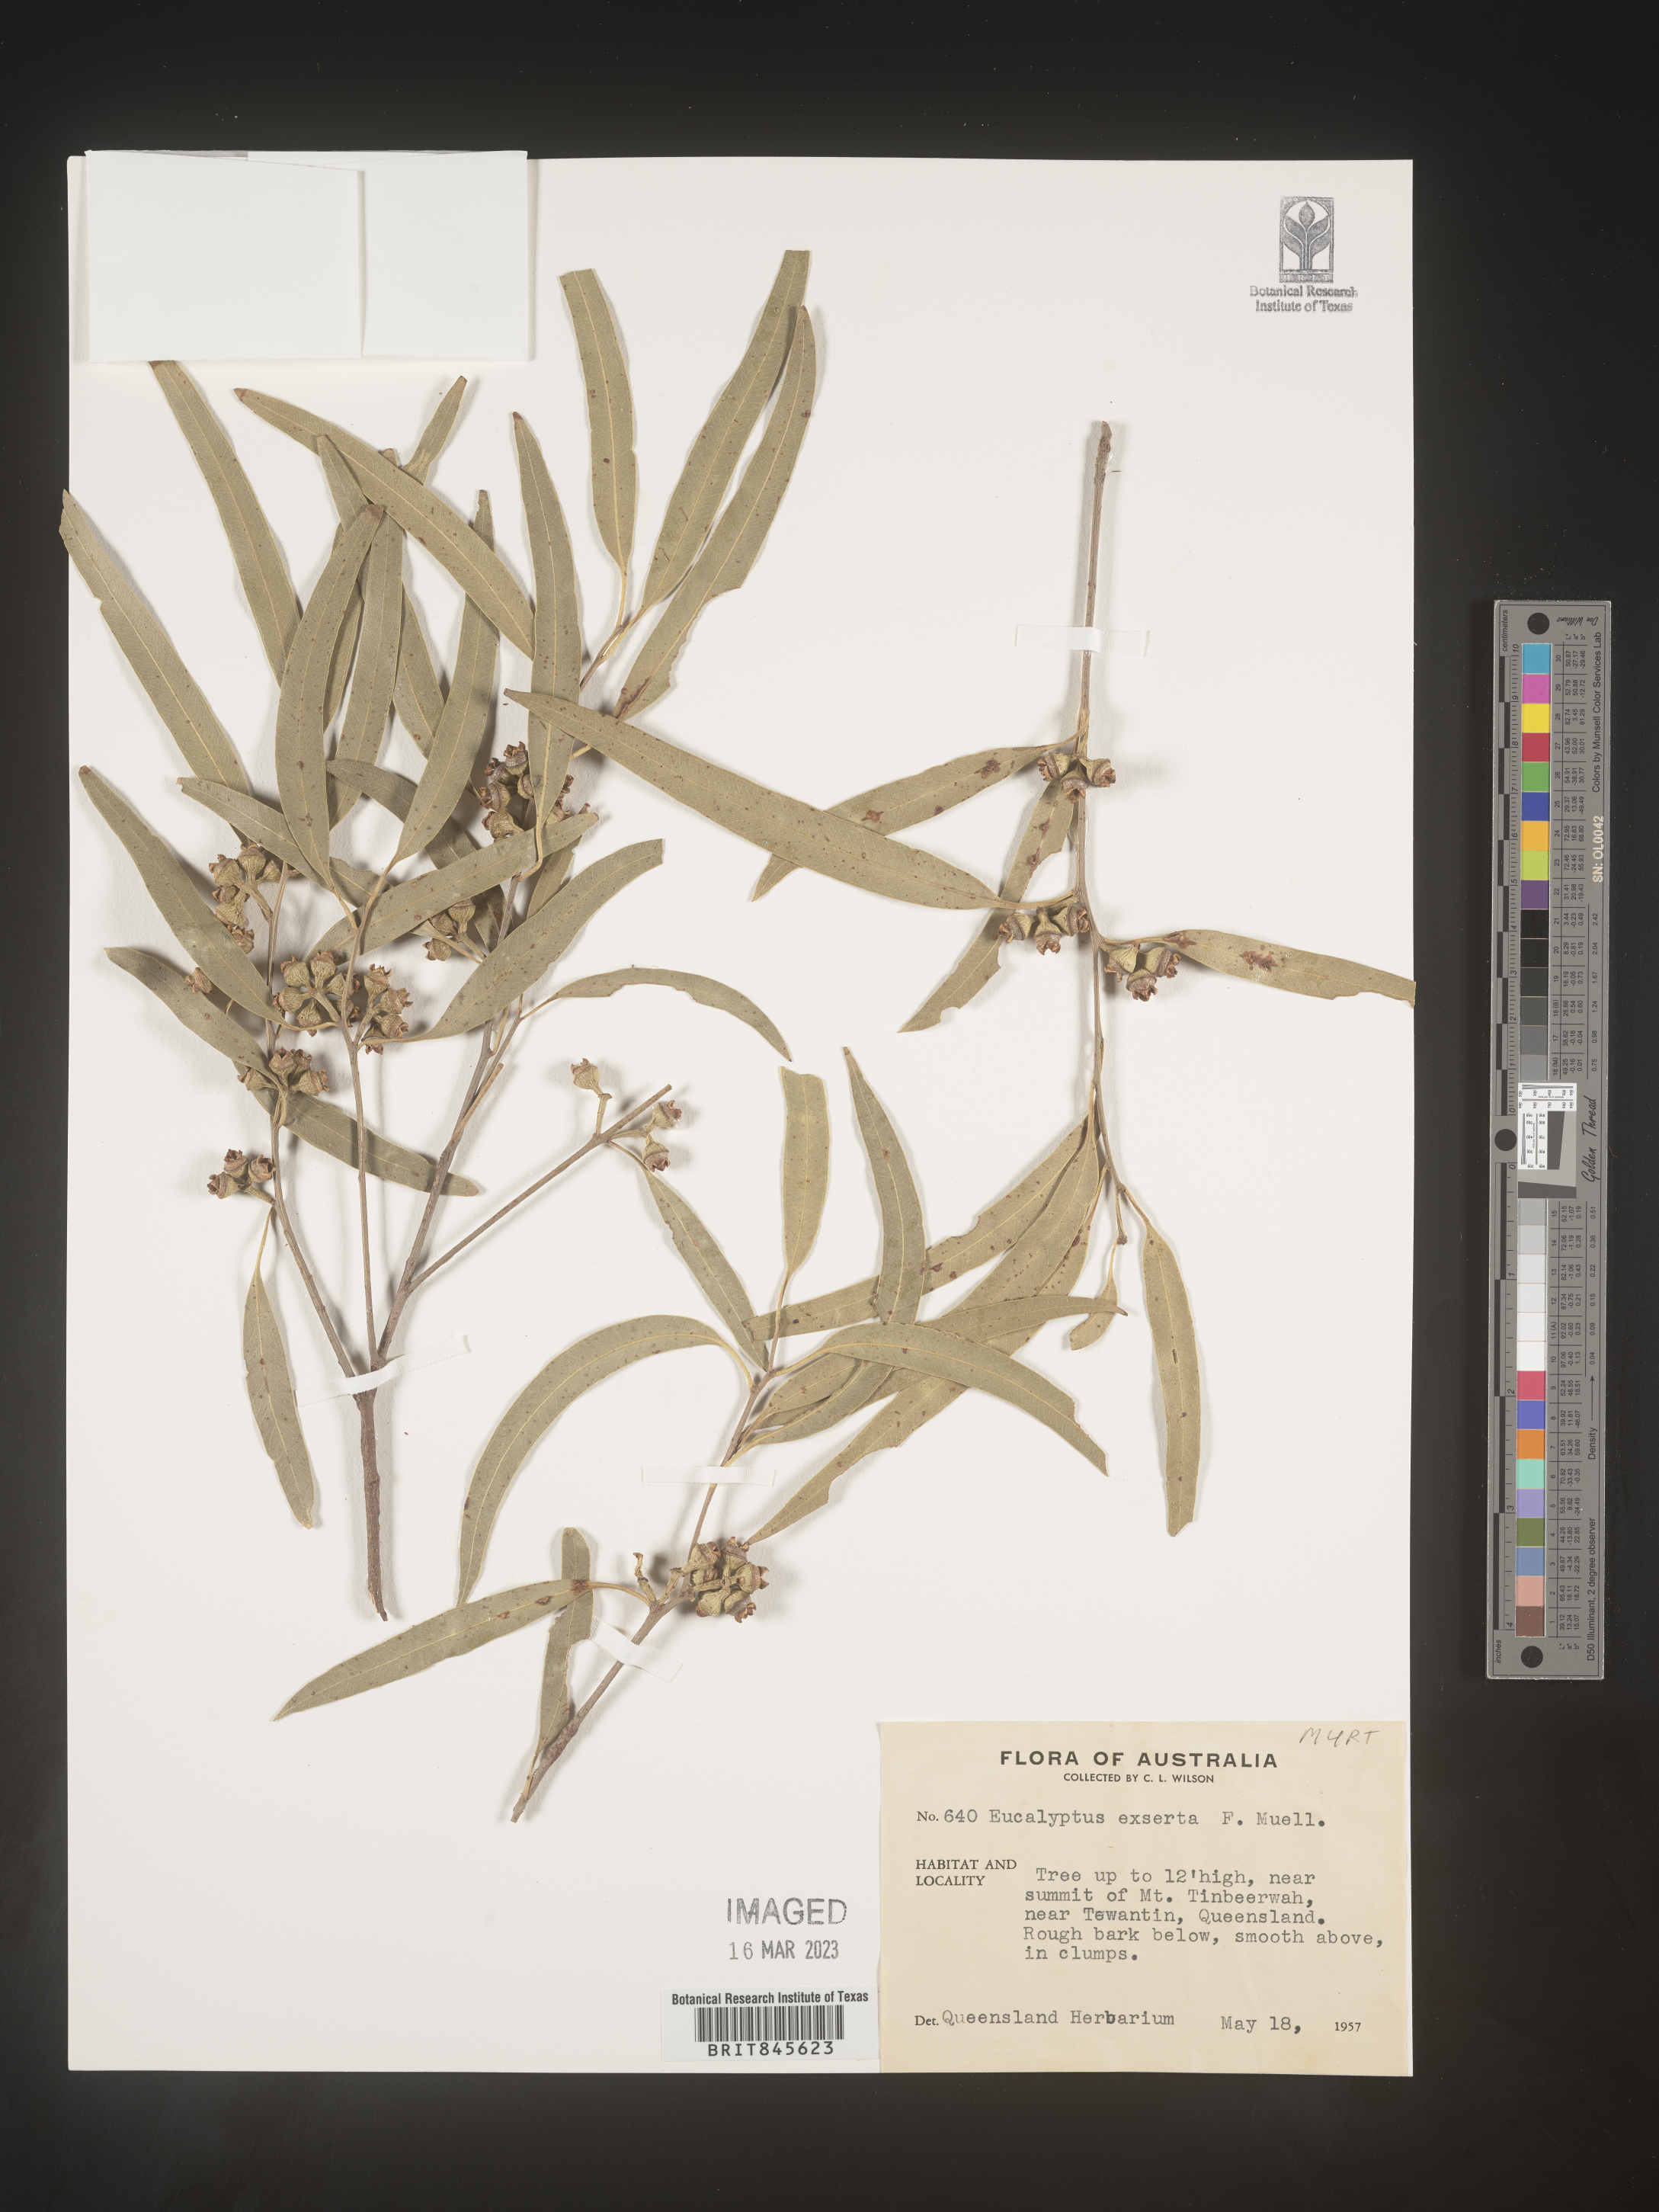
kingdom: Plantae
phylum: Tracheophyta
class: Magnoliopsida
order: Myrtales
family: Myrtaceae
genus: Eucalyptus
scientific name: Eucalyptus
